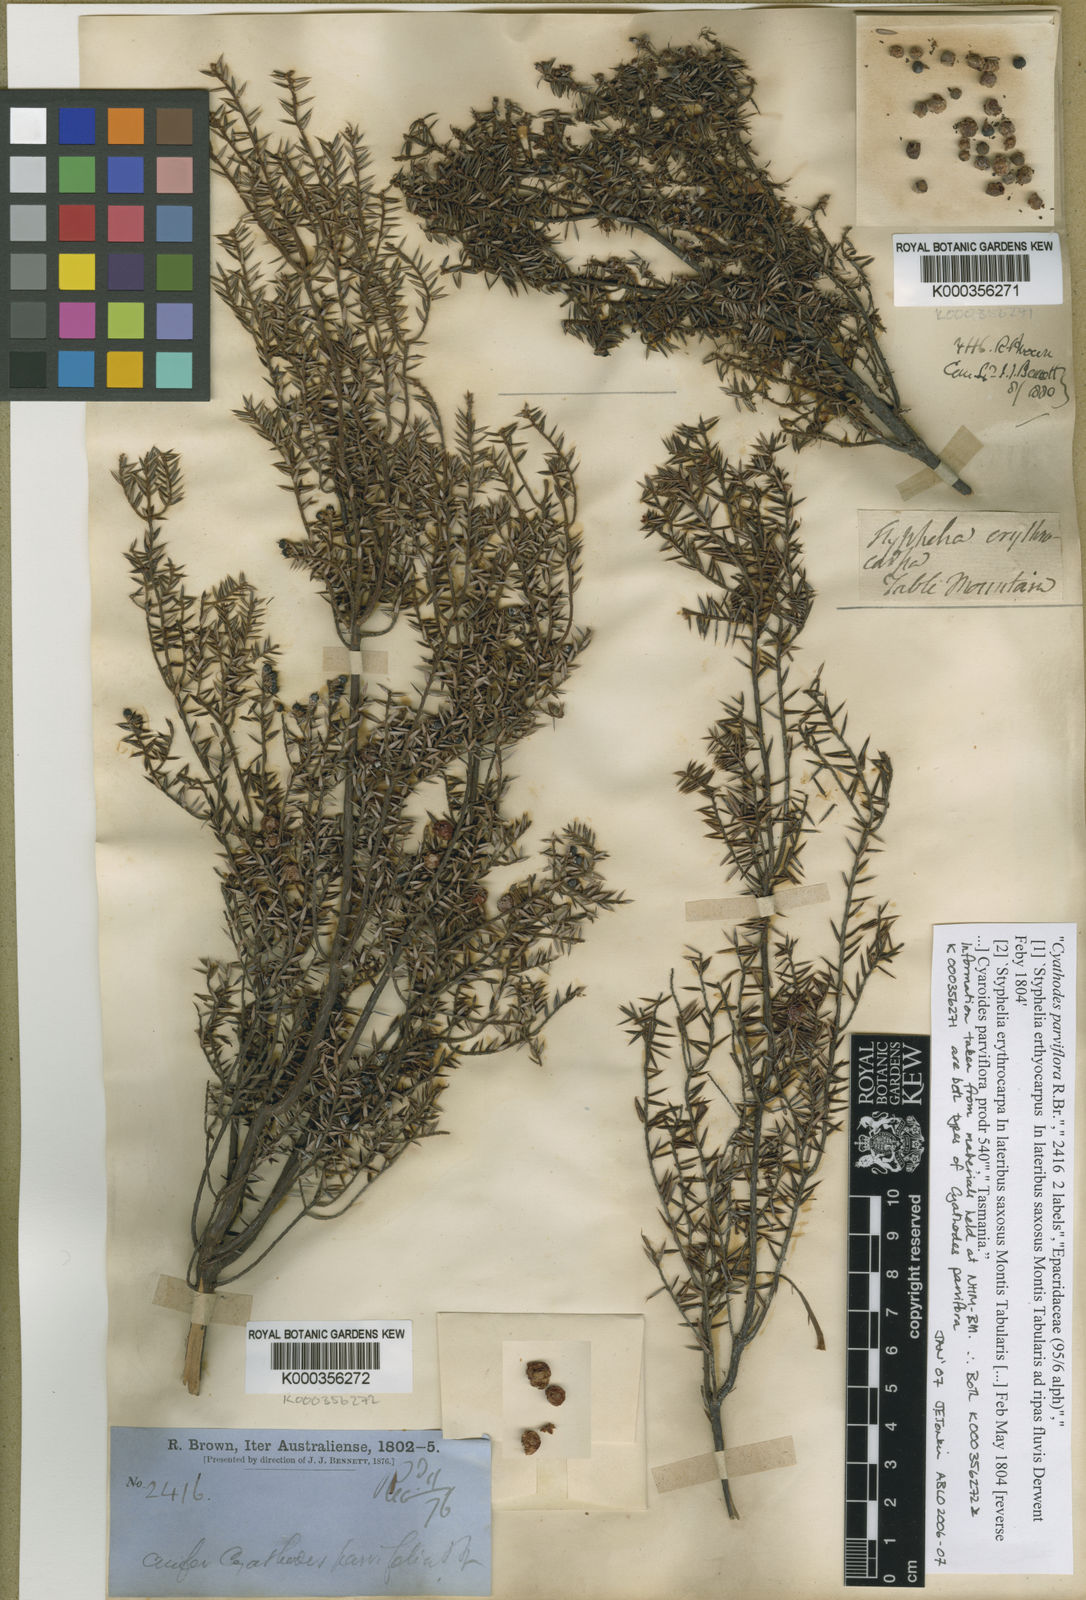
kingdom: Plantae
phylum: Tracheophyta
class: Magnoliopsida
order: Ericales
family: Ericaceae
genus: Leptecophylla
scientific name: Leptecophylla parvifolia
